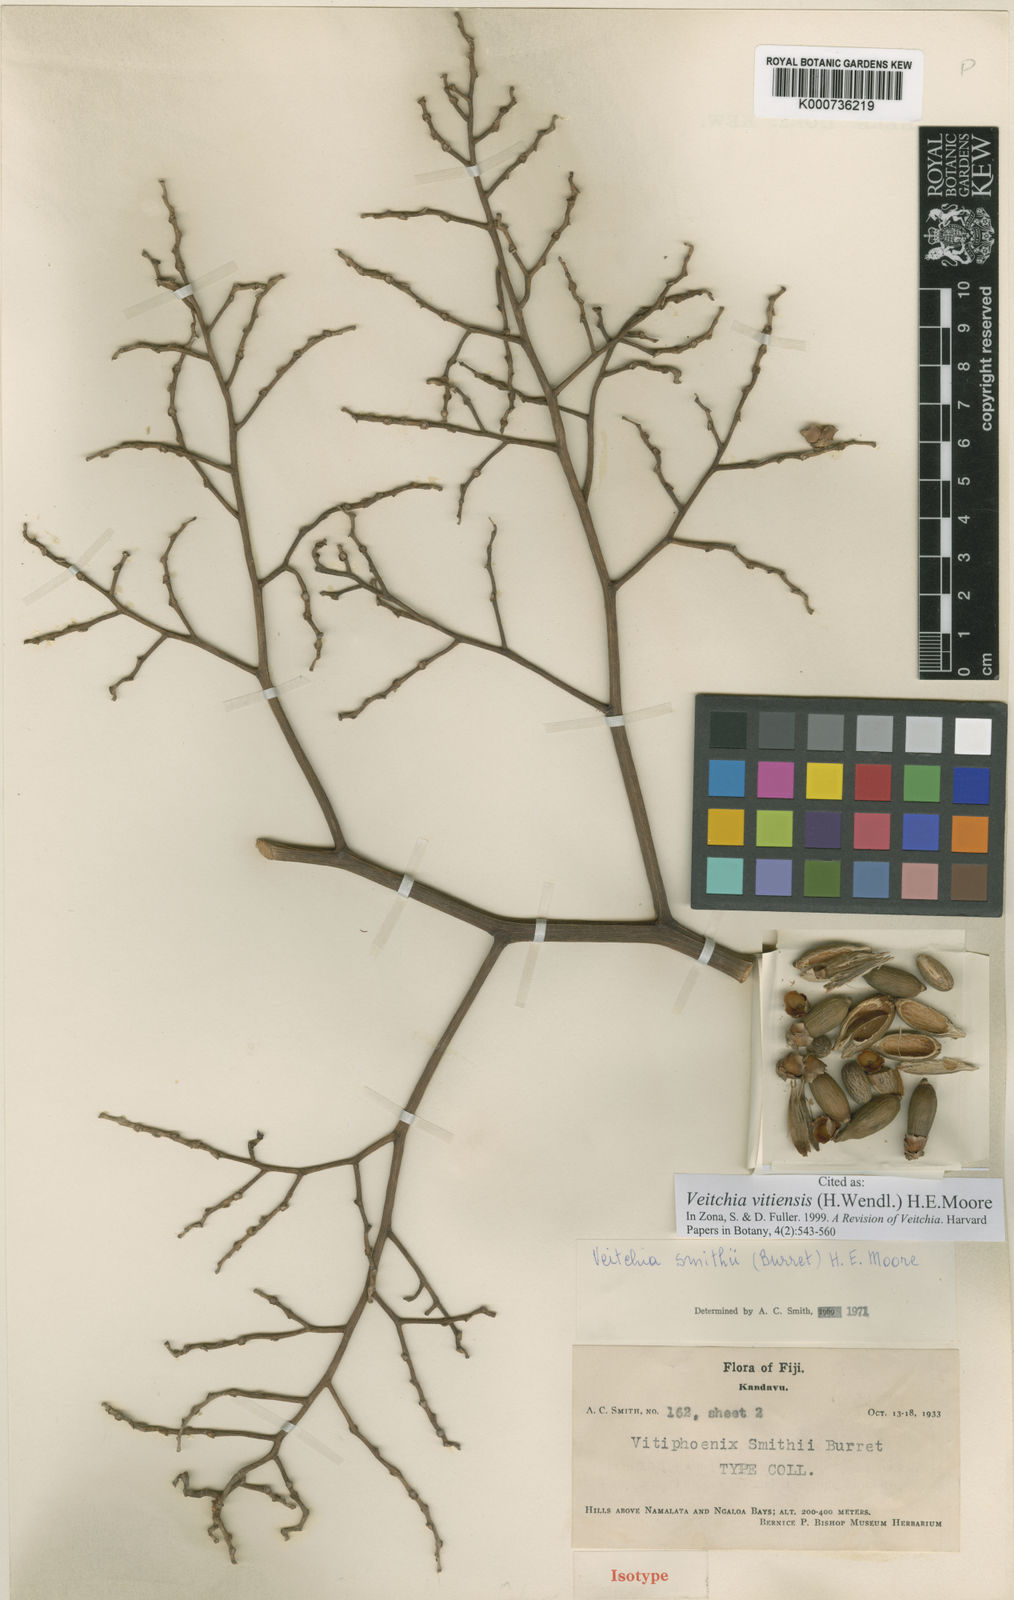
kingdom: Plantae
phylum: Tracheophyta
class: Liliopsida
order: Arecales
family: Arecaceae
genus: Veitchia
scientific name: Veitchia vitiensis
